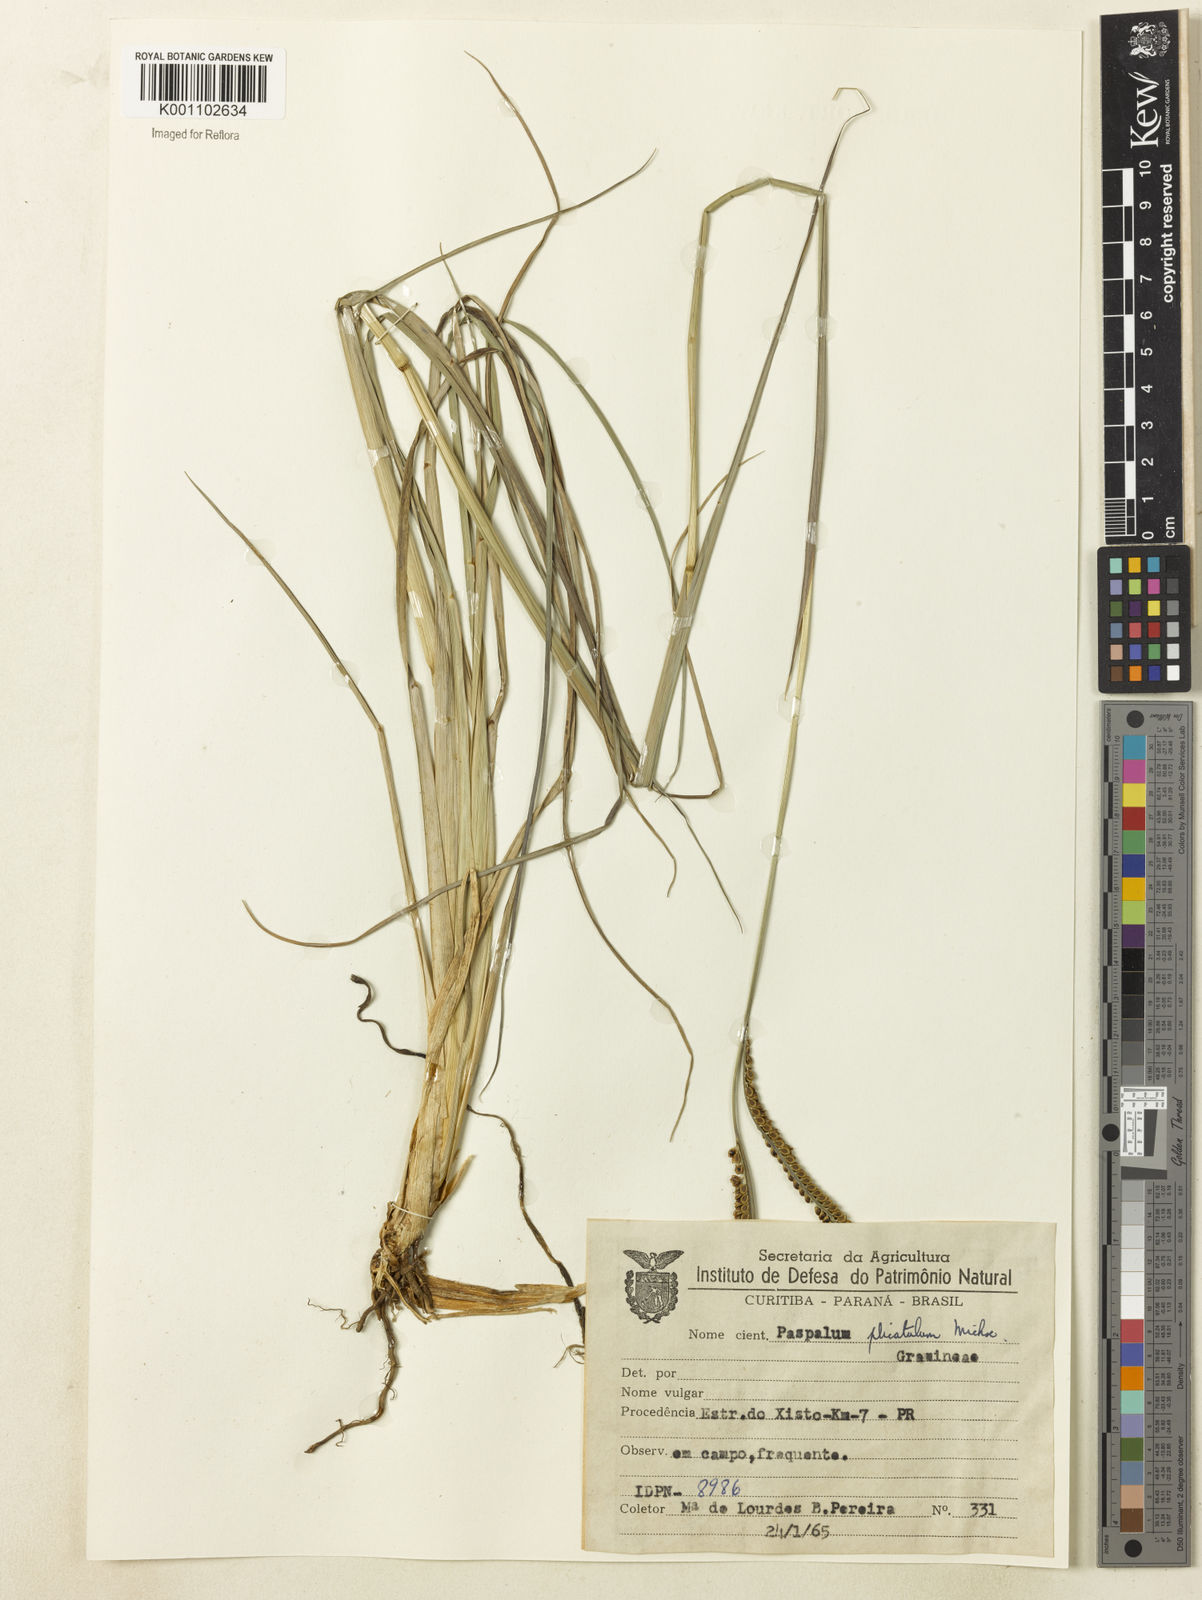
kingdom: Plantae
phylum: Tracheophyta
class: Liliopsida
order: Poales
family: Poaceae
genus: Paspalum
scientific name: Paspalum
